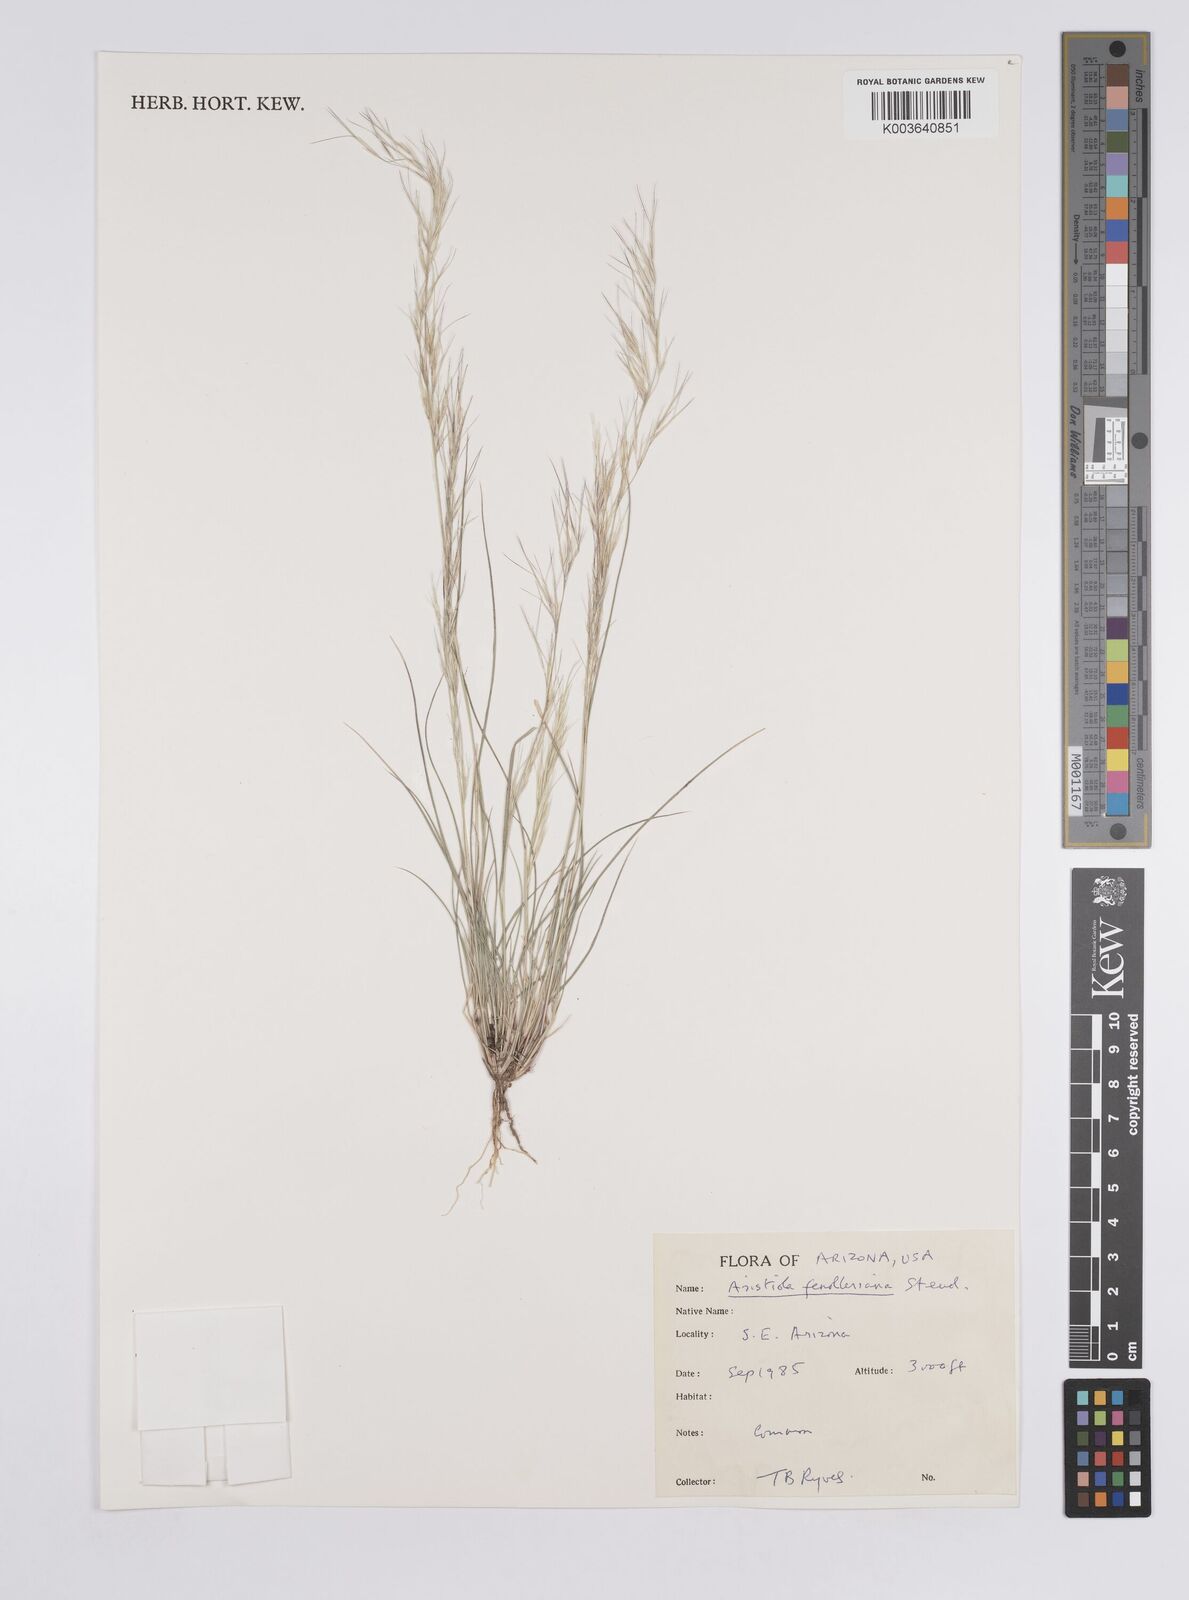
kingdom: Plantae
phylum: Tracheophyta
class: Liliopsida
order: Poales
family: Poaceae
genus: Aristida
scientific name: Aristida purpurea
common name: Purple threeawn
